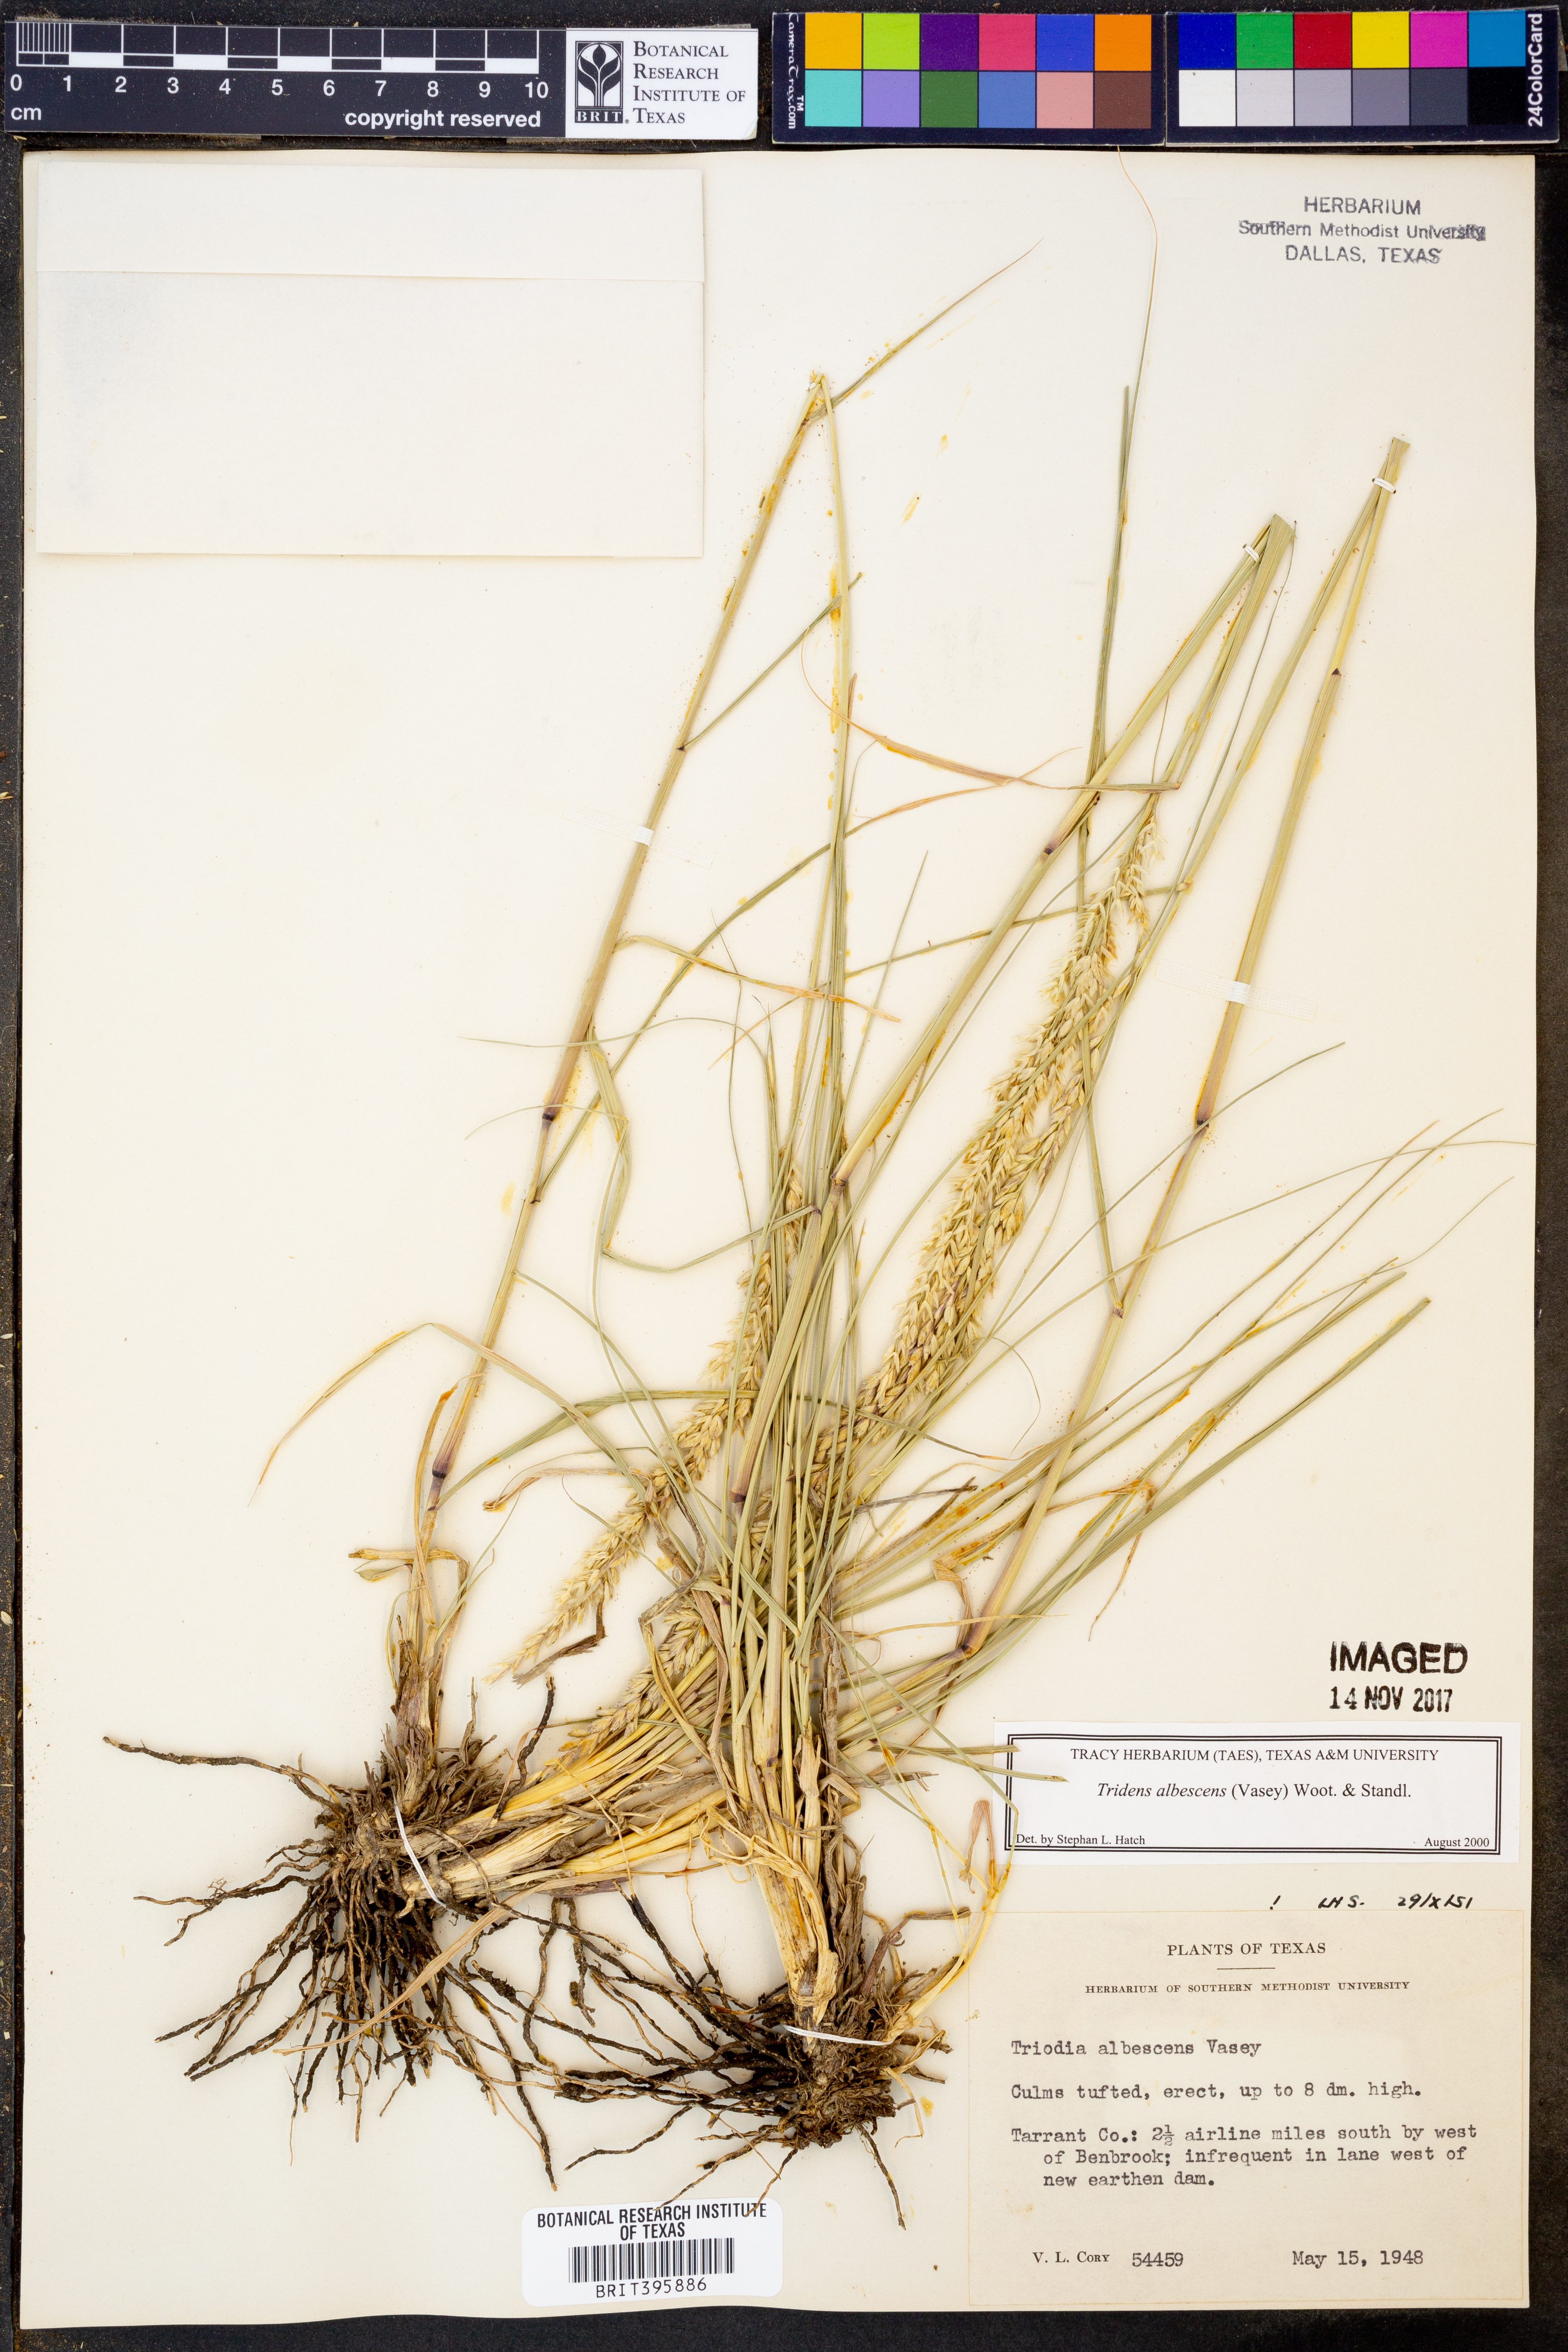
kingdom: Plantae
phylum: Tracheophyta
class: Liliopsida
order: Poales
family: Poaceae
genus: Tridens
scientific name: Tridens albescens
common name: White tridens
